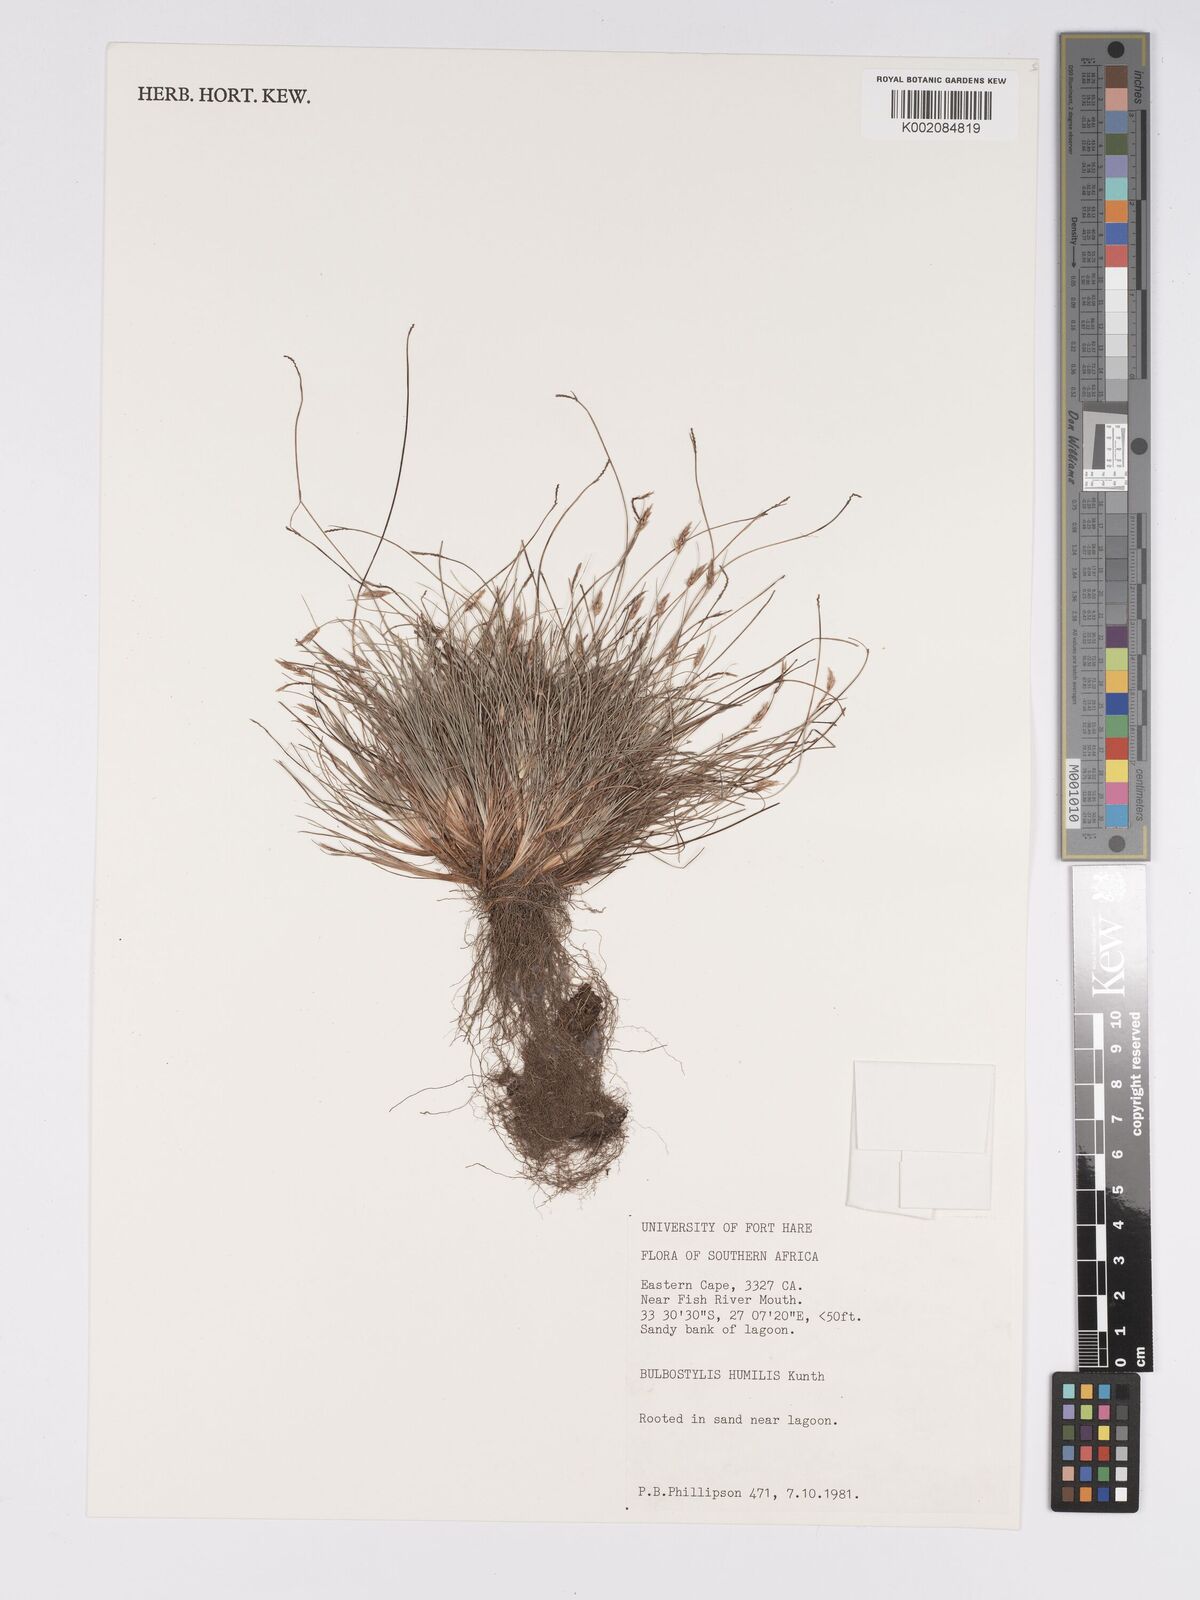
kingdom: Plantae
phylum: Tracheophyta
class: Liliopsida
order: Poales
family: Cyperaceae
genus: Bulbostylis
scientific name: Bulbostylis humilis
